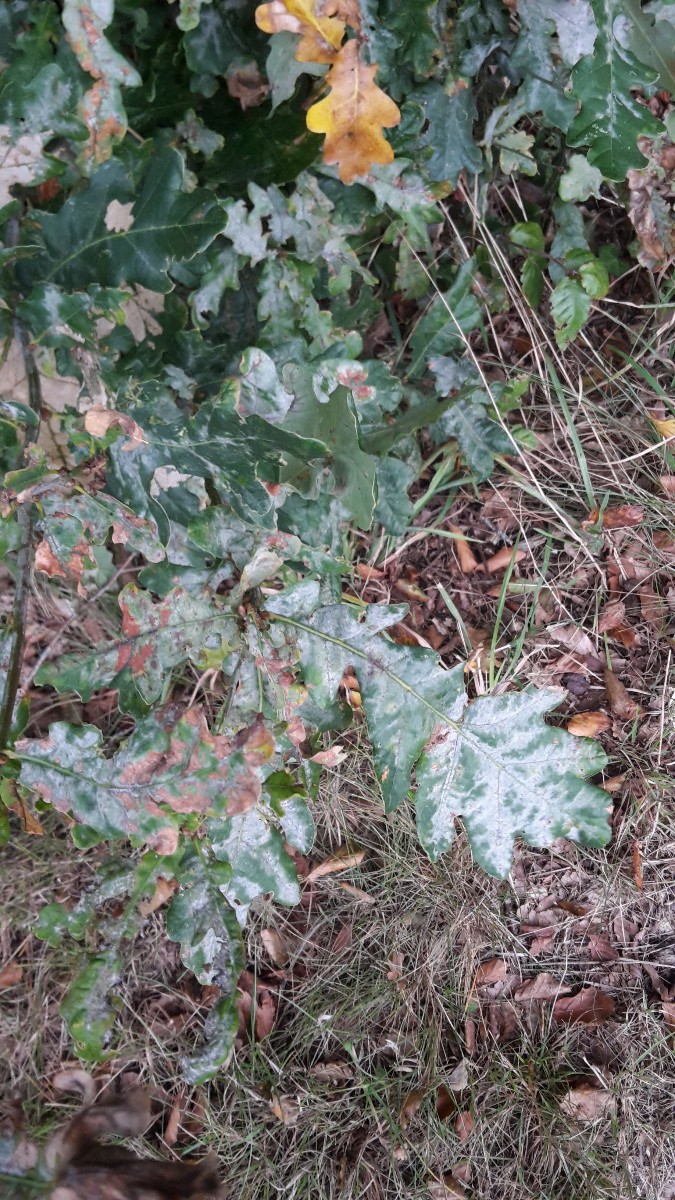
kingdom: Fungi
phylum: Ascomycota
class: Leotiomycetes
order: Helotiales
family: Erysiphaceae
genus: Erysiphe
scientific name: Erysiphe alphitoides
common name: ege-meldug
